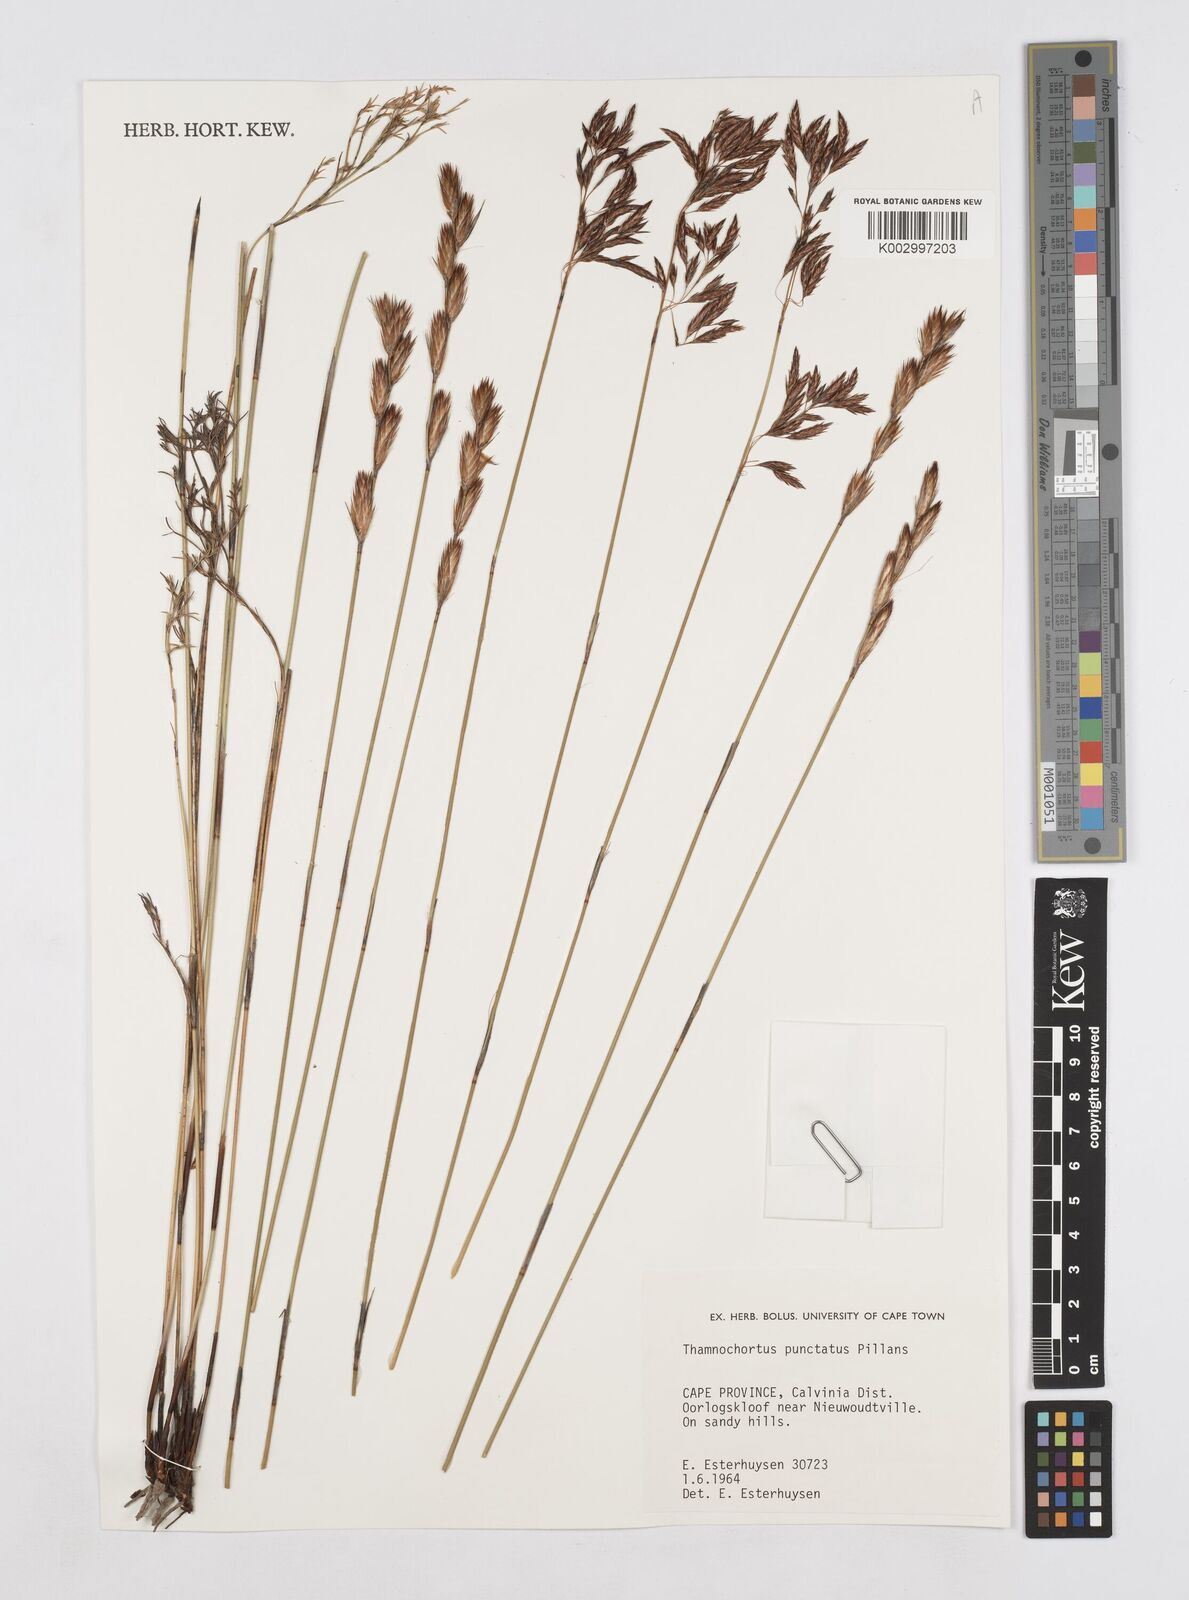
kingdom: Plantae
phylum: Tracheophyta
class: Liliopsida
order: Poales
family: Restionaceae
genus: Thamnochortus
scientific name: Thamnochortus punctatus
